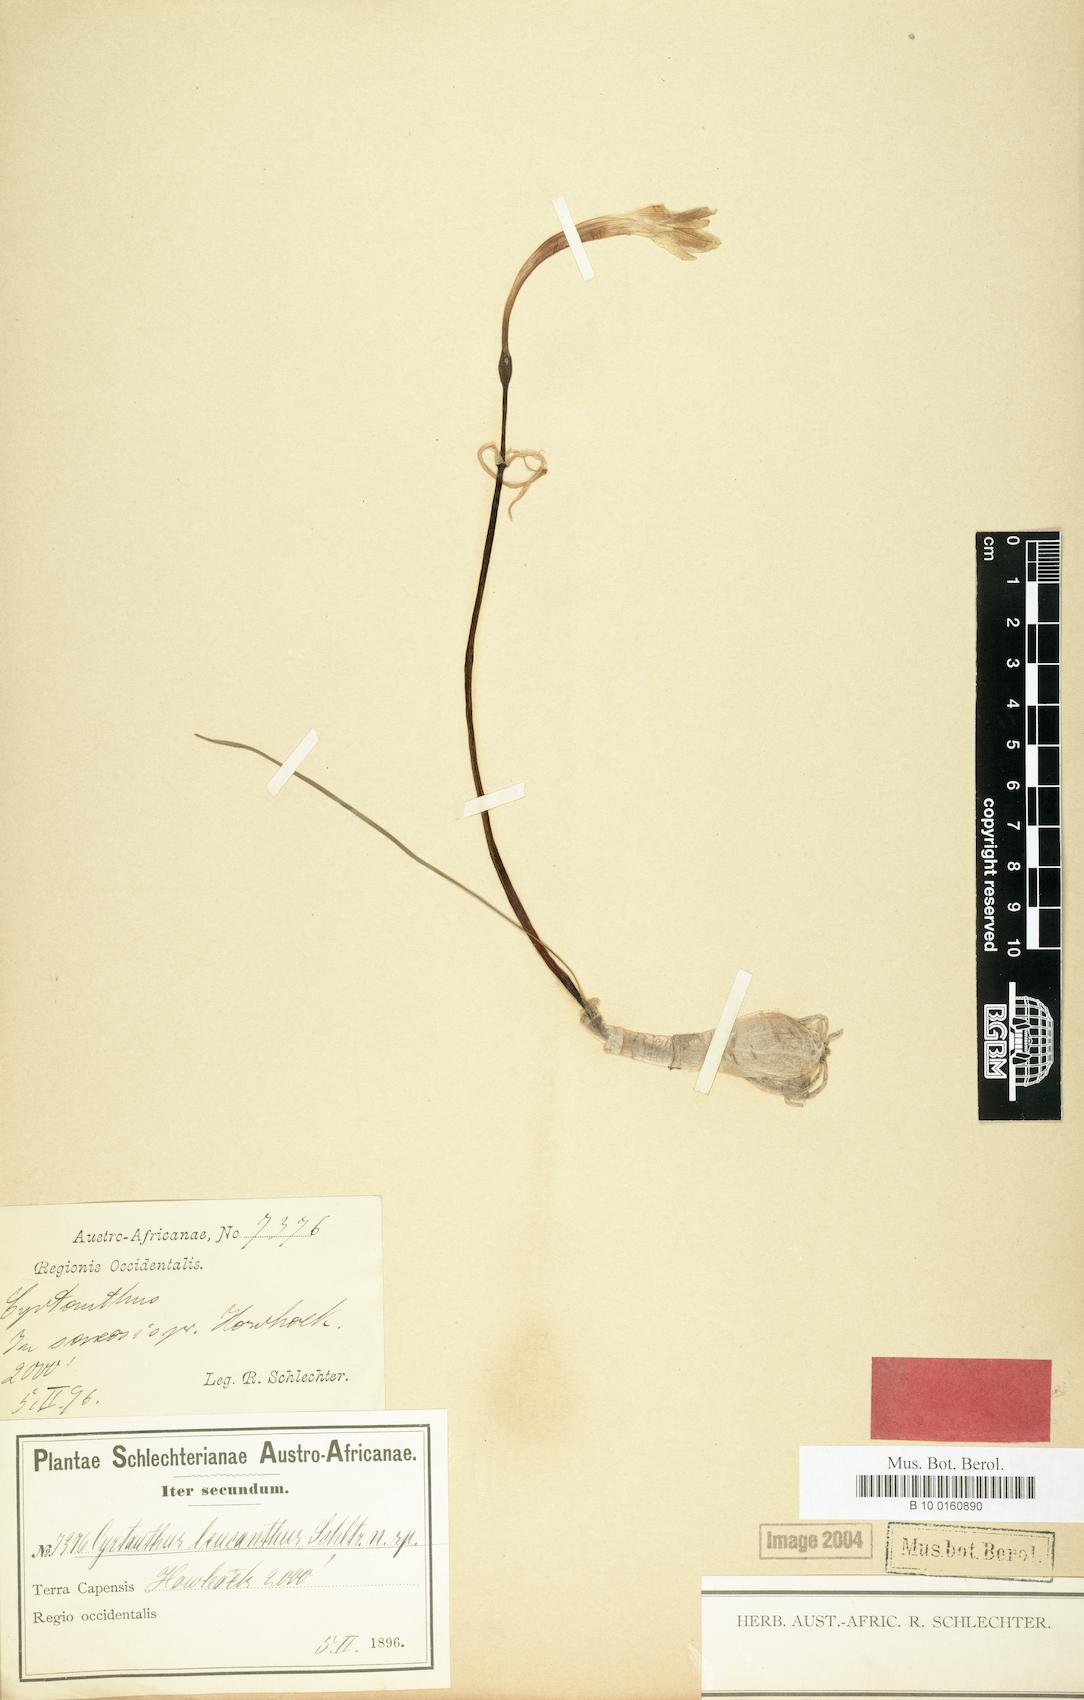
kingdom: Plantae
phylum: Tracheophyta
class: Liliopsida
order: Asparagales
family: Amaryllidaceae
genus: Cyrtanthus
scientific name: Cyrtanthus leucanthus
